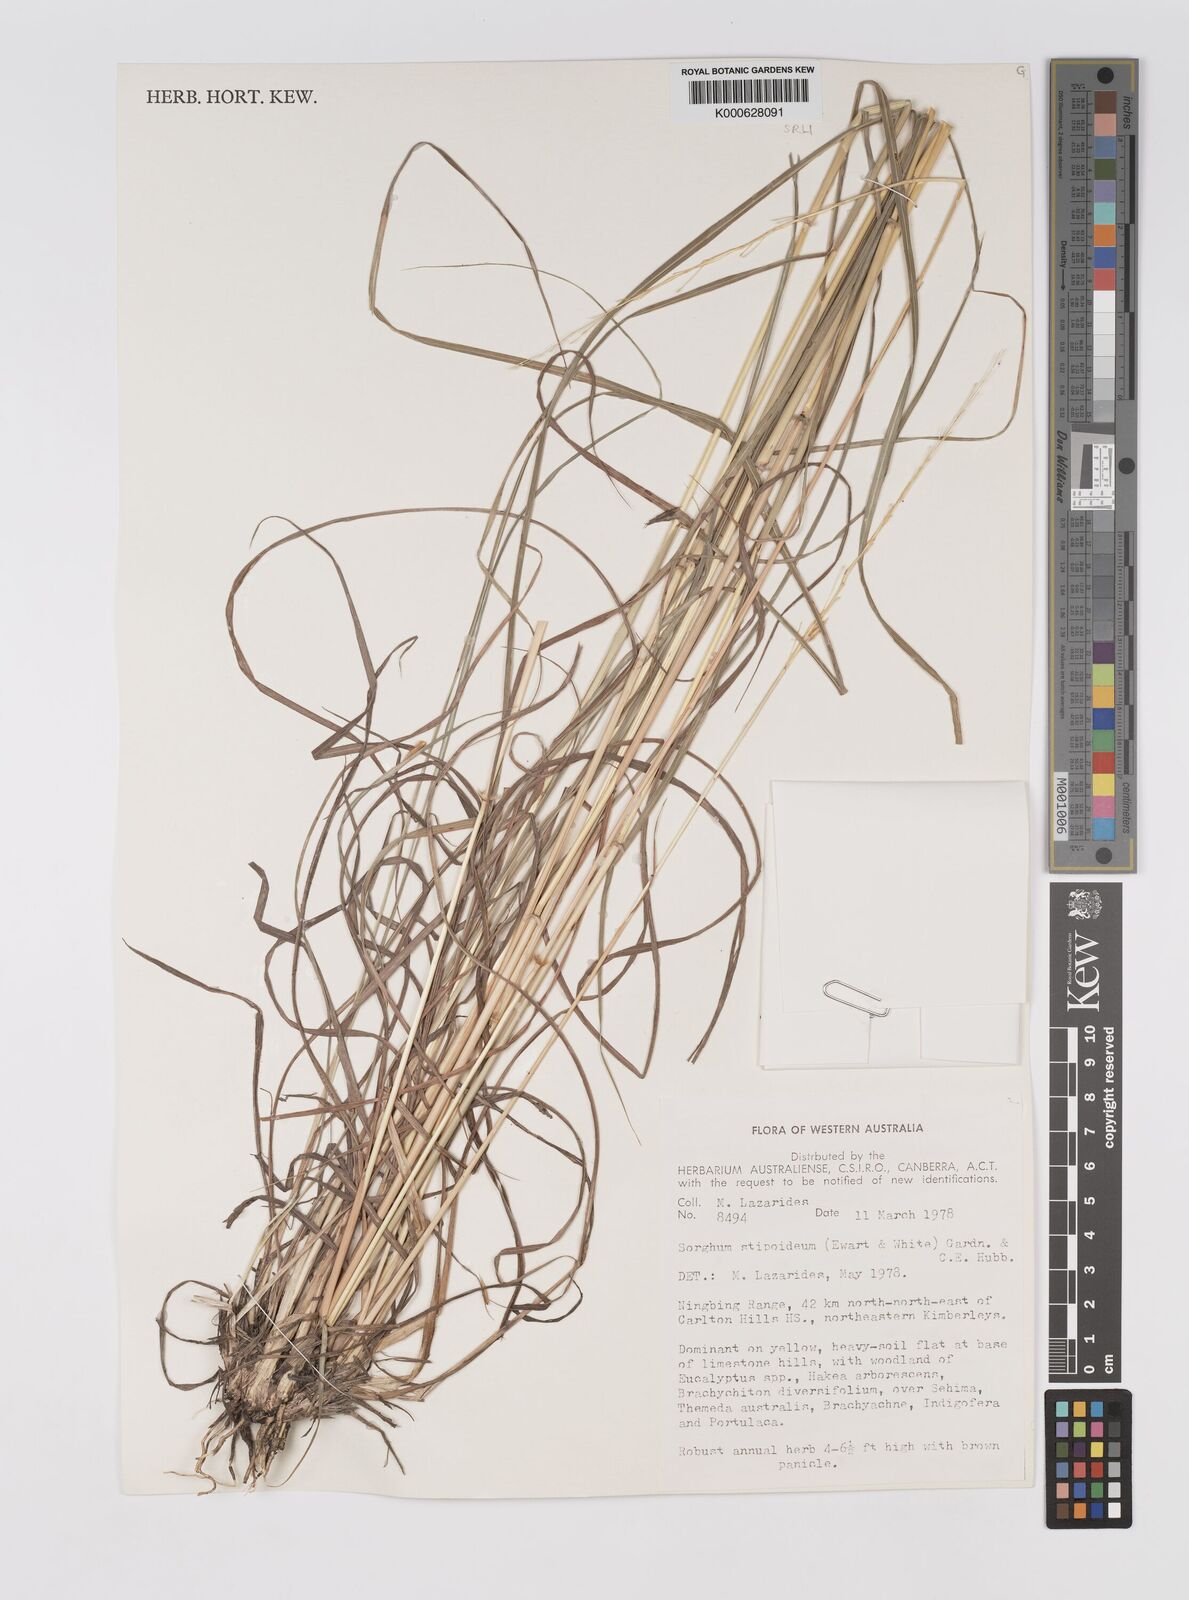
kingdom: Plantae
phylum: Tracheophyta
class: Liliopsida
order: Poales
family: Poaceae
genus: Sarga
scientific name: Sarga stipoidea
